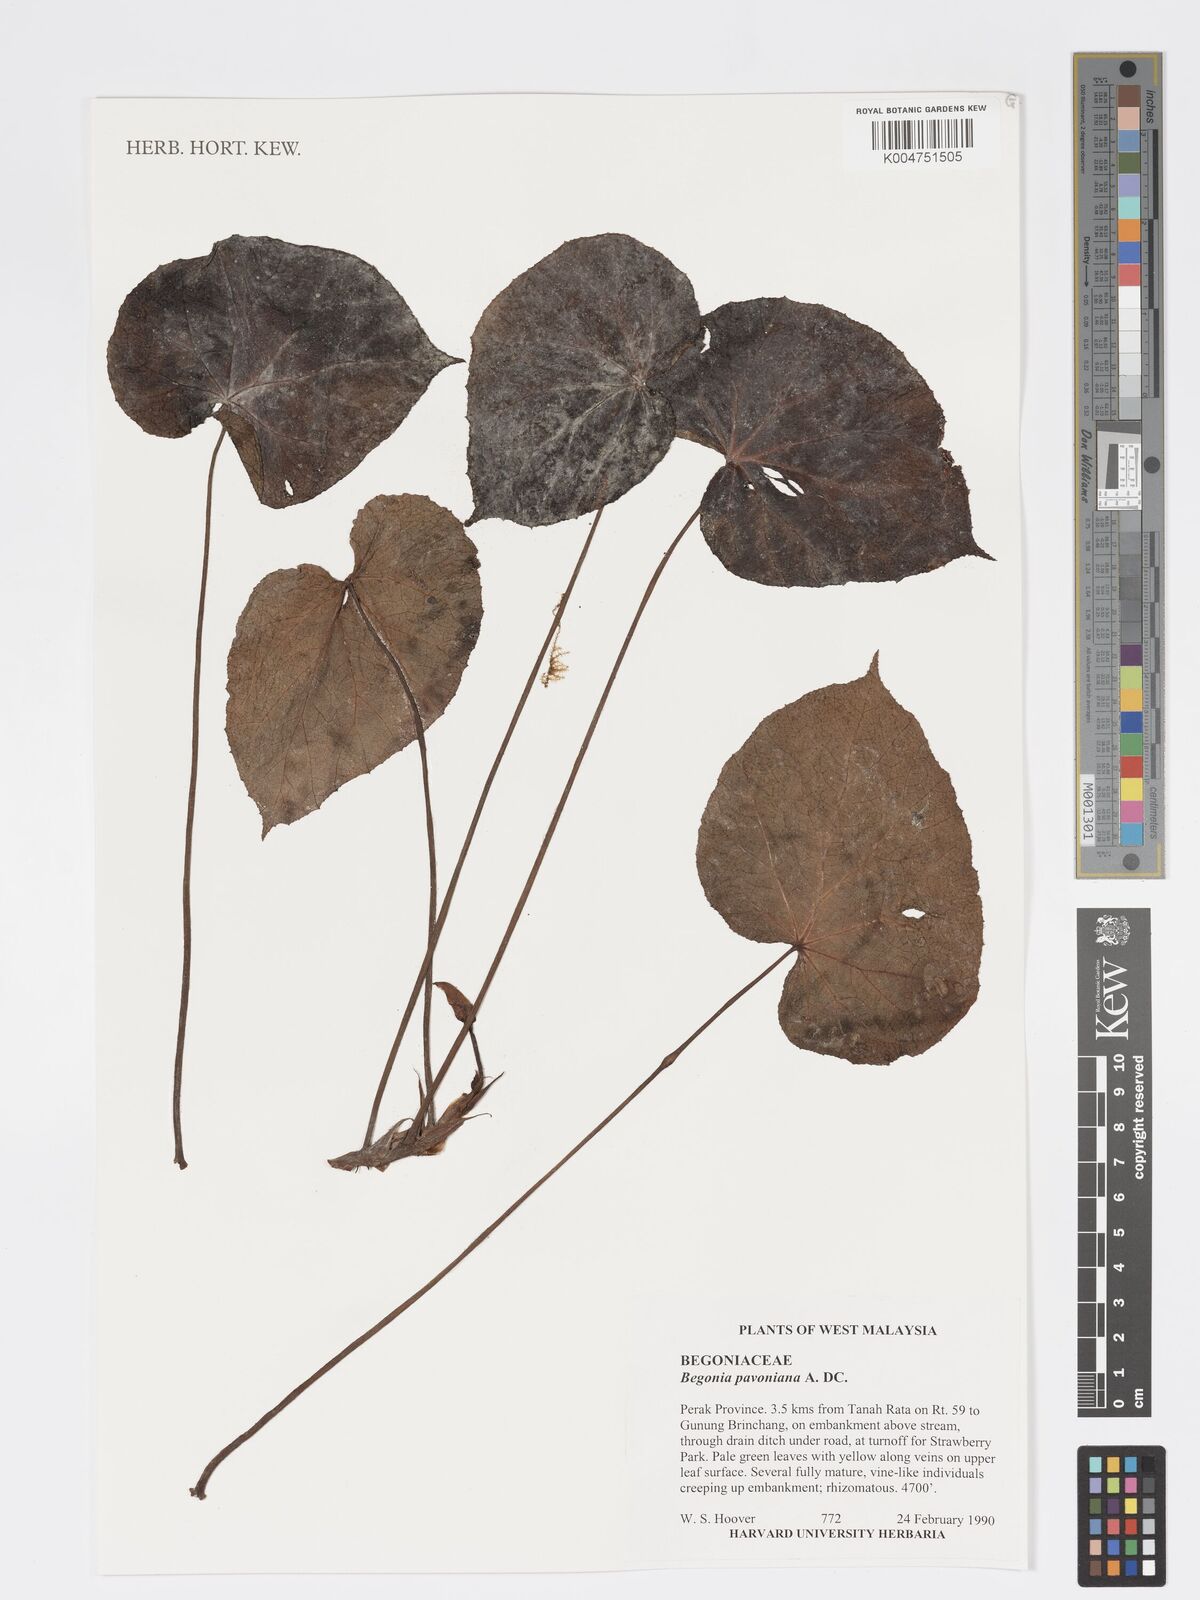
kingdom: Plantae
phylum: Tracheophyta
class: Magnoliopsida
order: Cucurbitales
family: Begoniaceae
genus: Begonia
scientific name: Begonia
